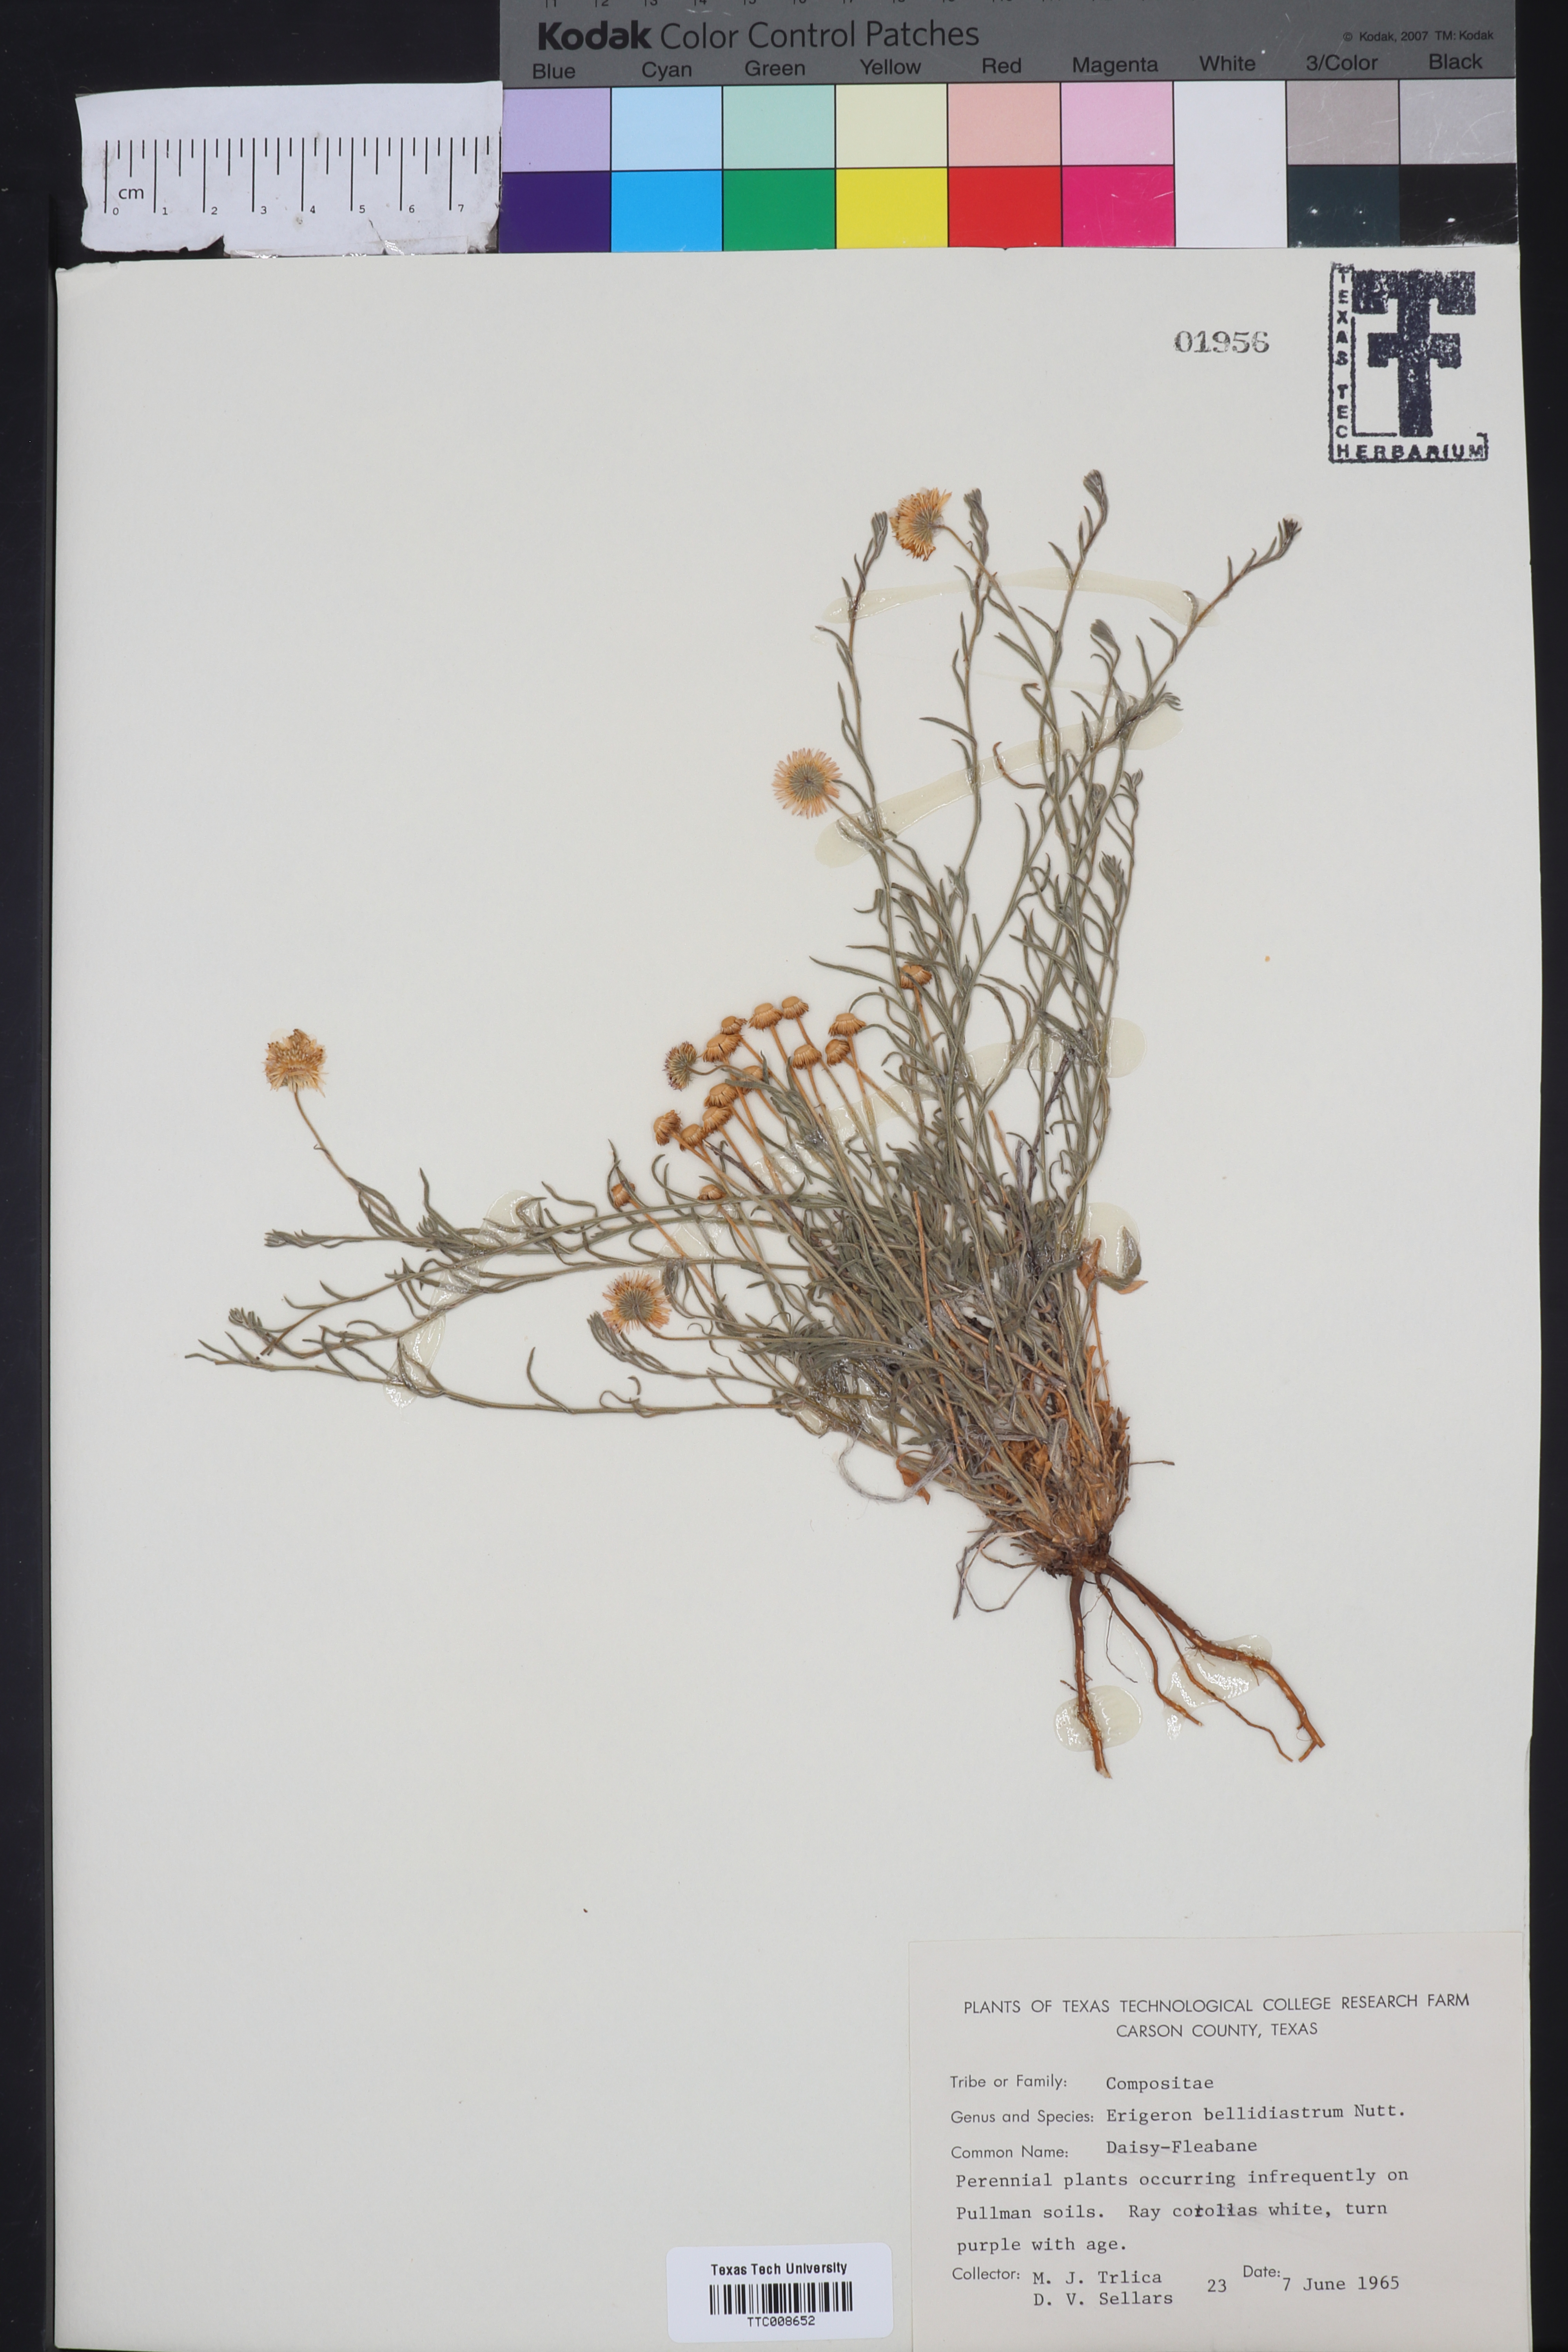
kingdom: Plantae
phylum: Tracheophyta
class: Magnoliopsida
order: Asterales
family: Asteraceae
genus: Erigeron
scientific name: Erigeron bellidiastrum
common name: Sand fleabane
